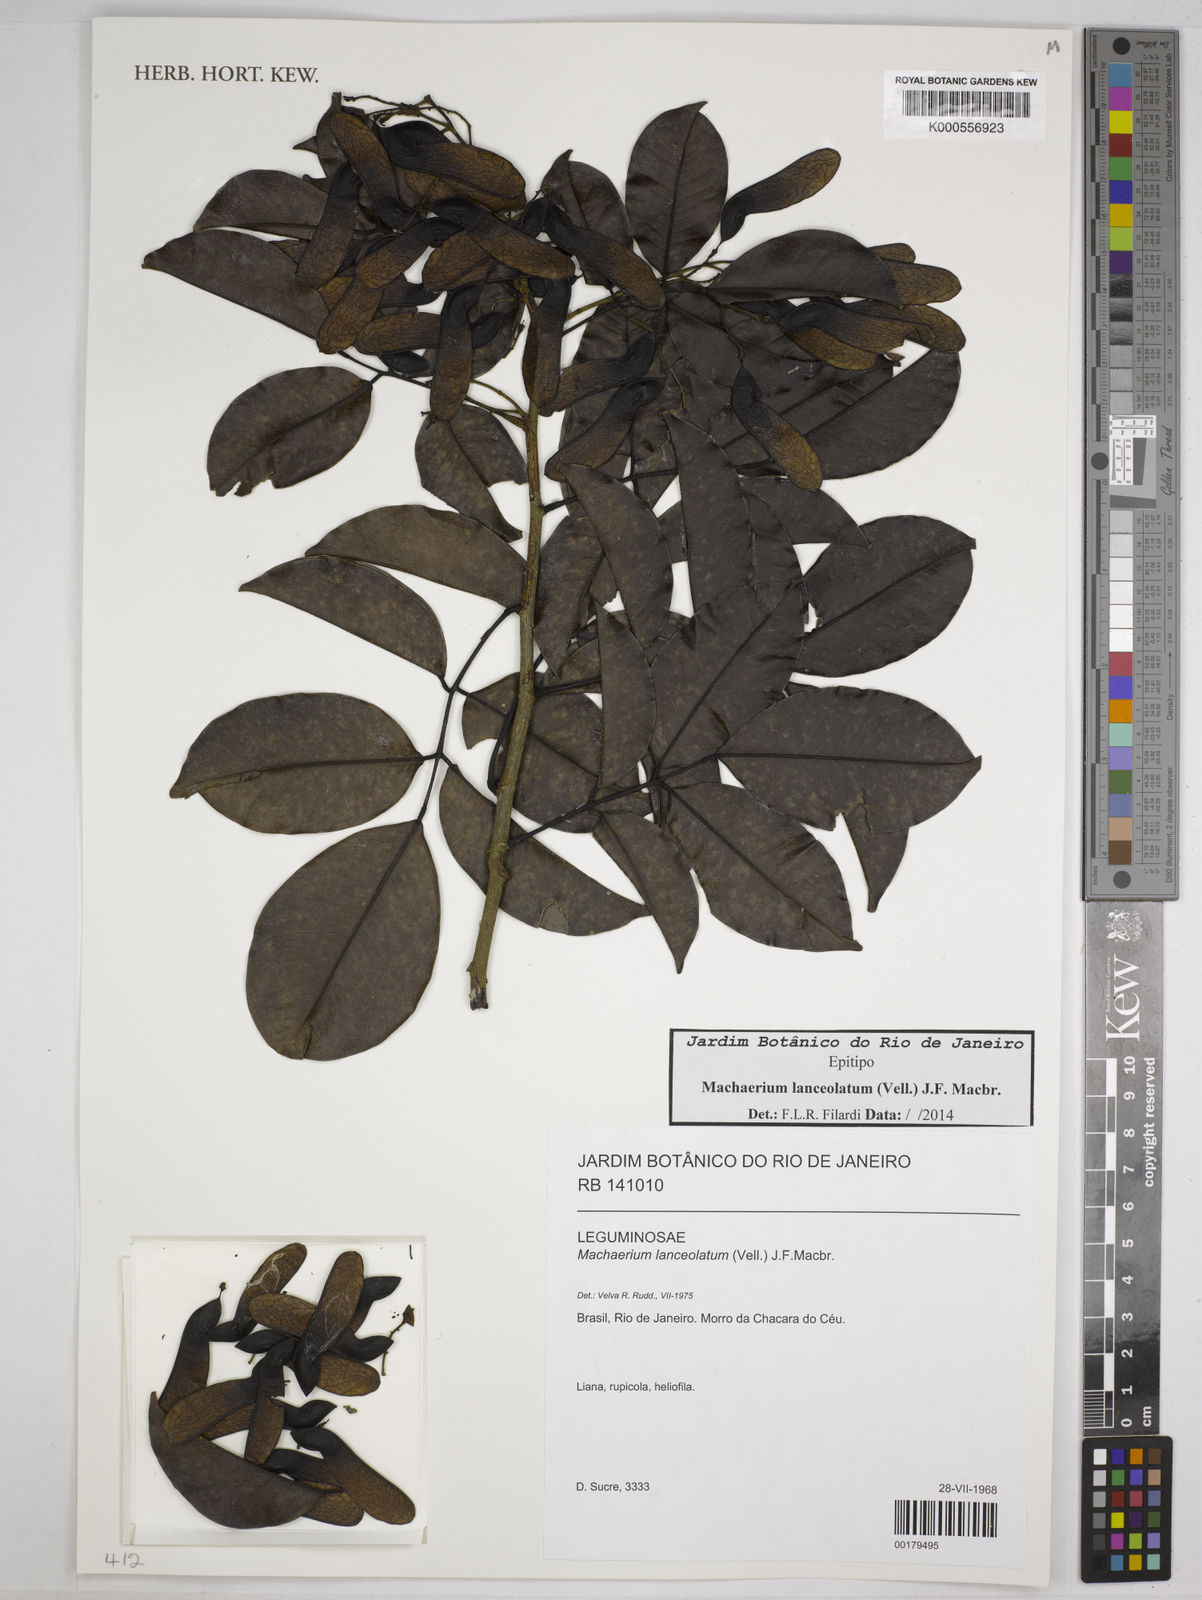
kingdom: Plantae
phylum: Tracheophyta
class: Magnoliopsida
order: Fabales
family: Fabaceae
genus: Machaerium
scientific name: Machaerium lanceolatum
